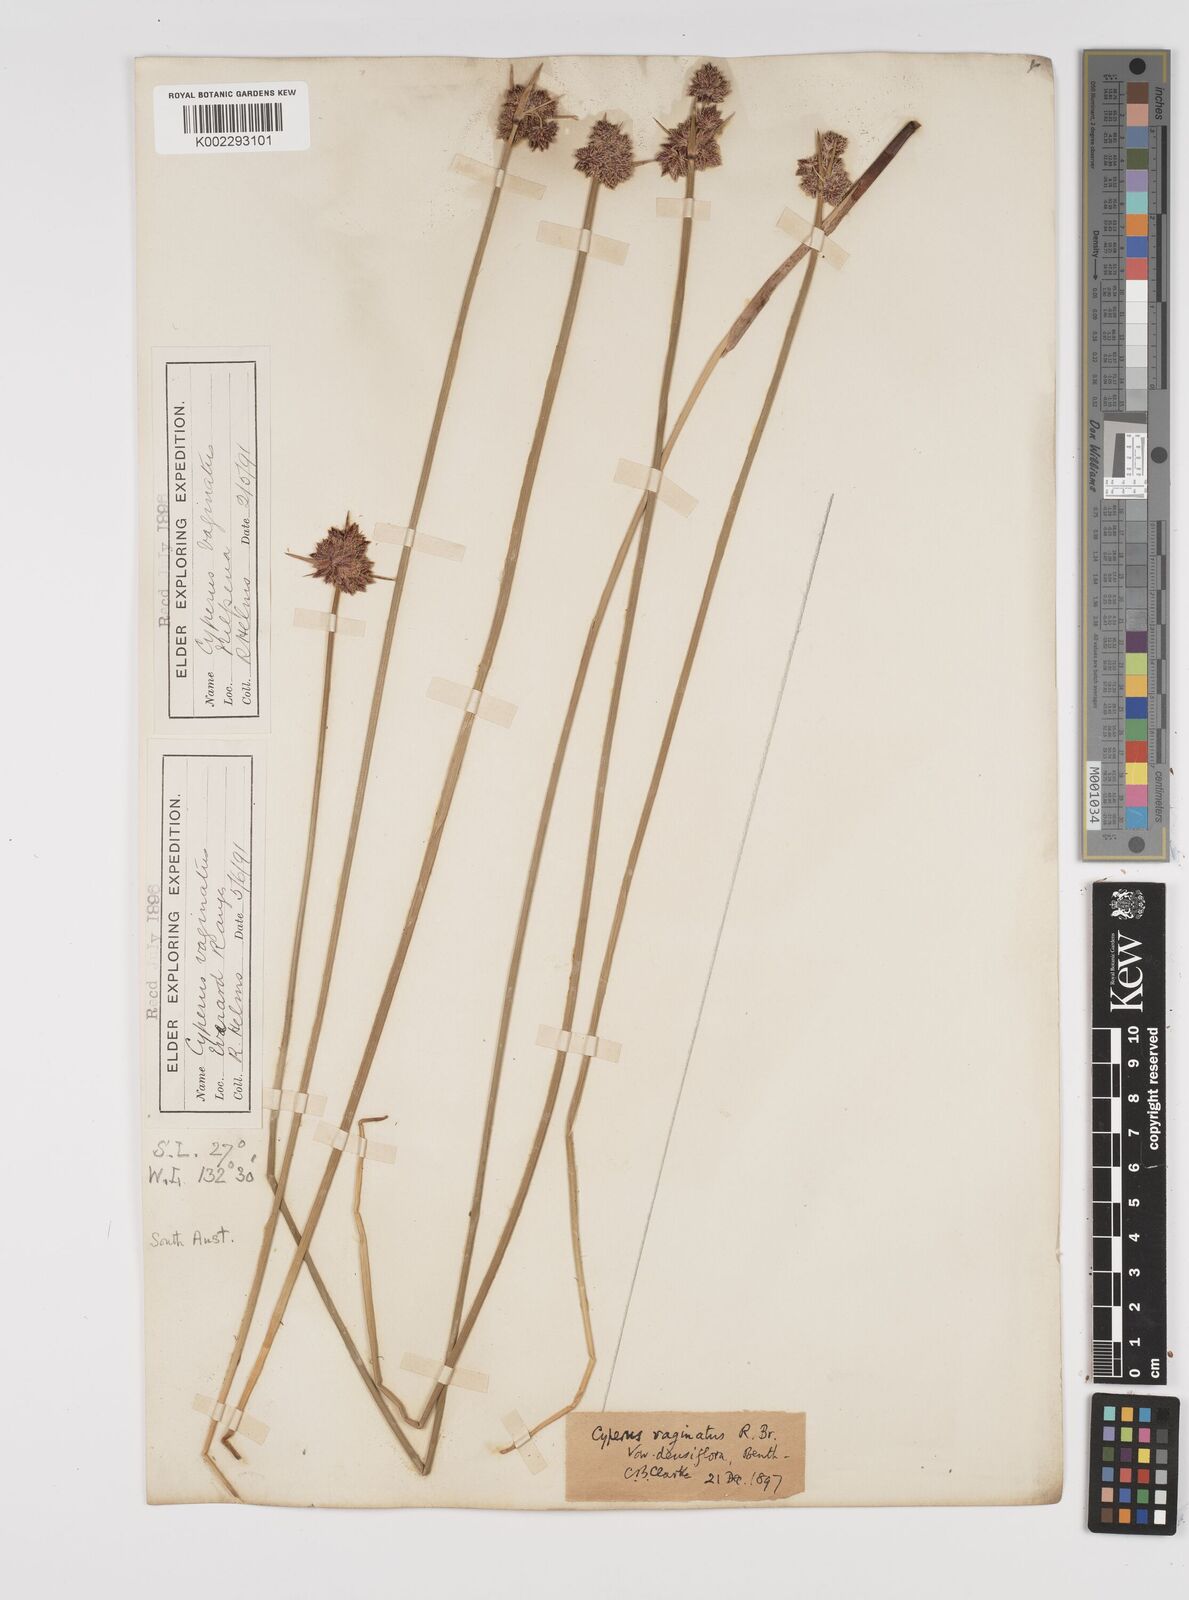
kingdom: Plantae
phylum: Tracheophyta
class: Liliopsida
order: Poales
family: Cyperaceae
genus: Cyperus
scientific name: Cyperus vaginatus
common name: Stiff-leaved flat-sedge
